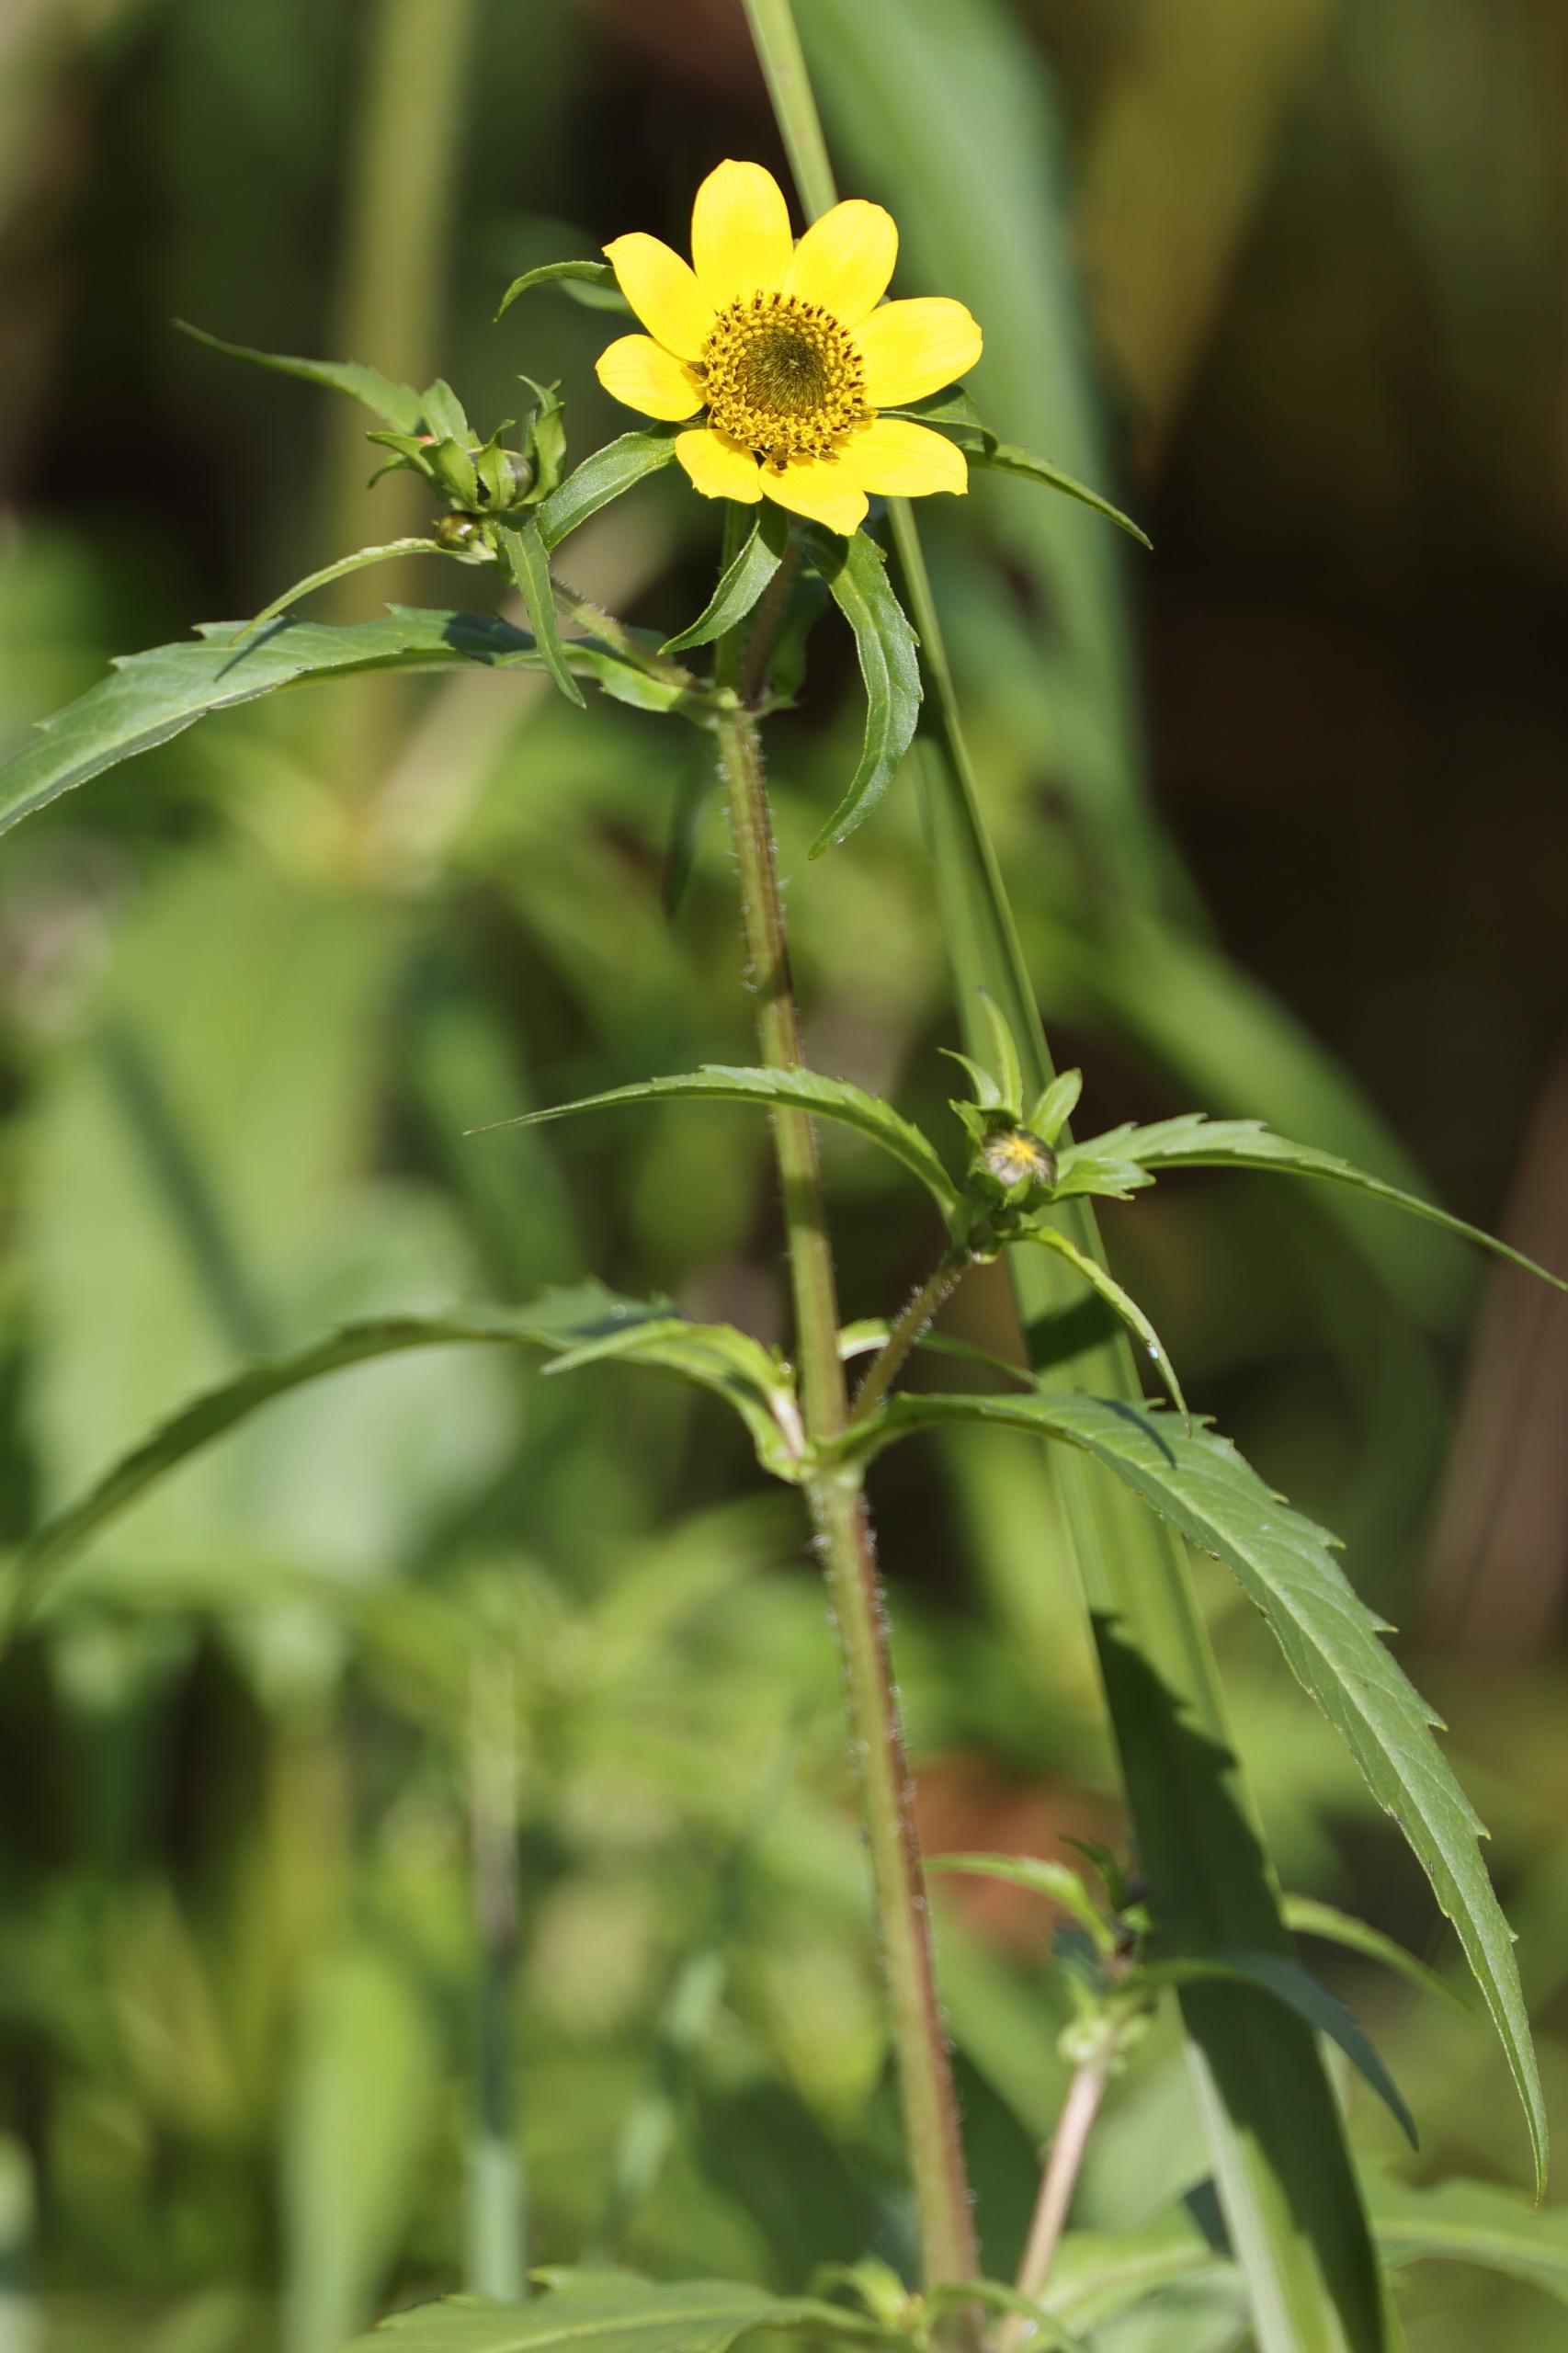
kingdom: Plantae
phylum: Tracheophyta
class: Magnoliopsida
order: Asterales
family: Asteraceae
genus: Bidens
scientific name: Bidens cernua
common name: Nikkende brøndsel
